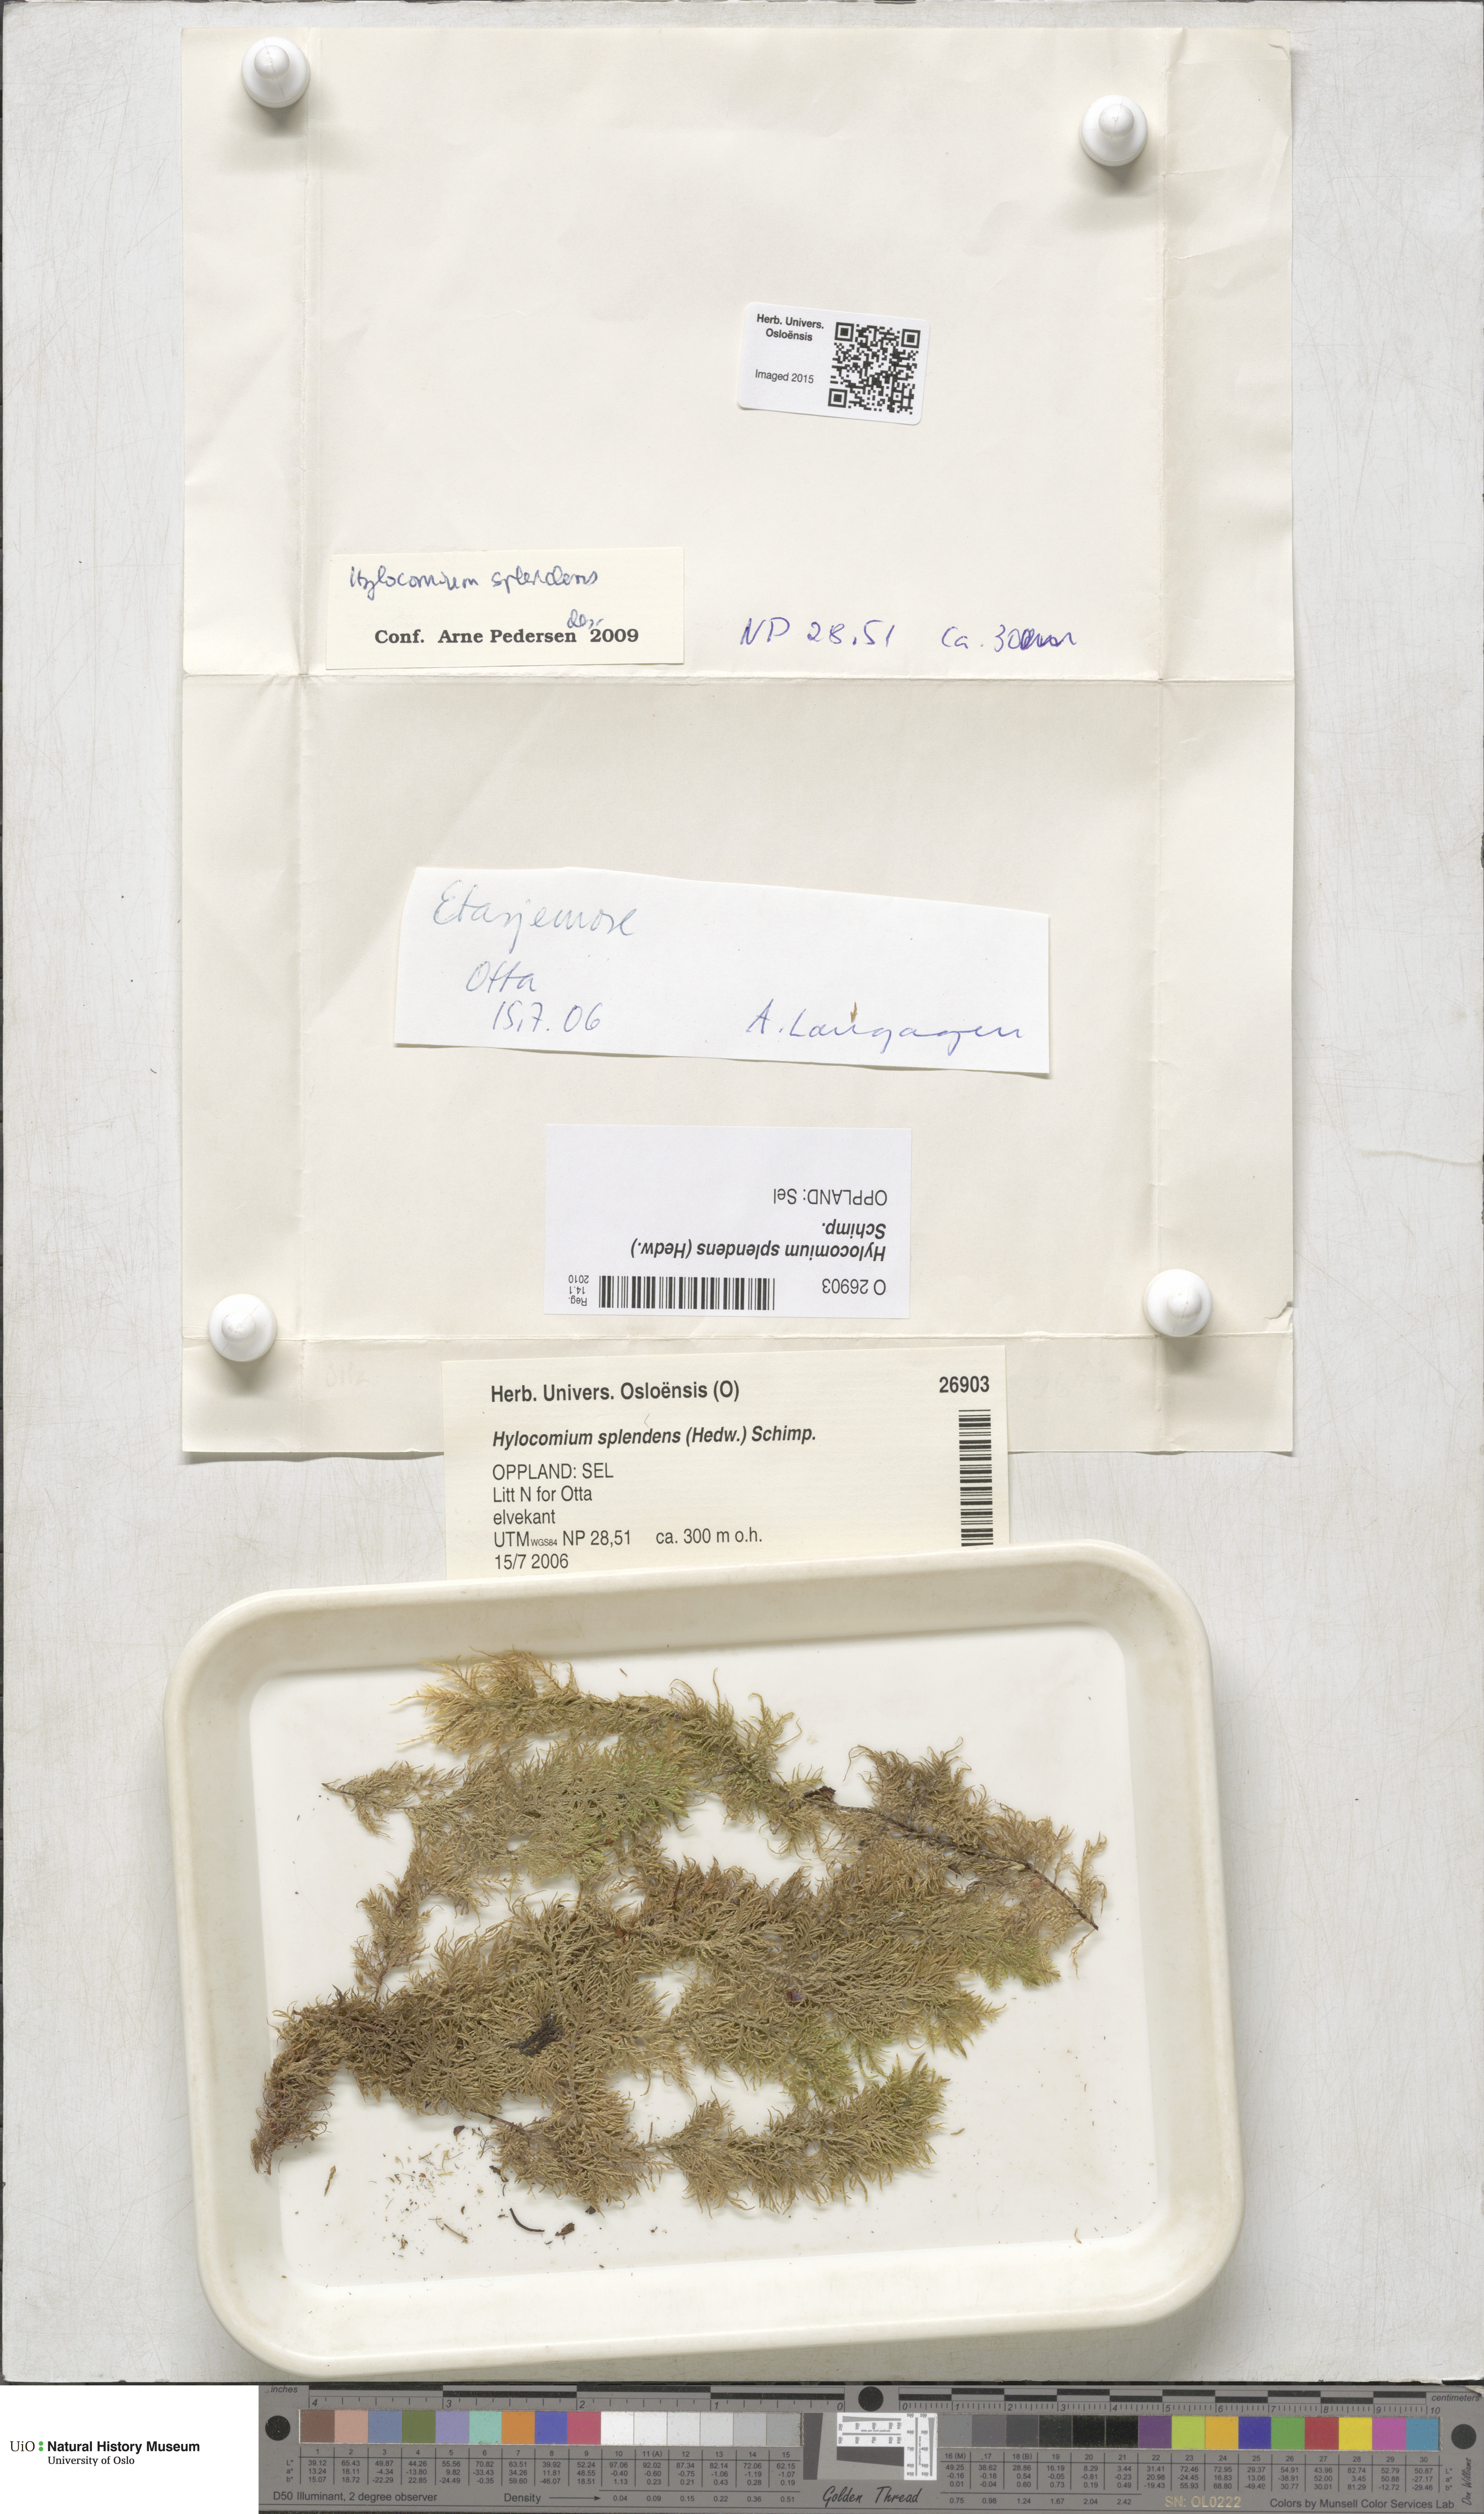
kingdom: Plantae
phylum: Bryophyta
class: Bryopsida
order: Hypnales
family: Hylocomiaceae
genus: Hylocomium
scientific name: Hylocomium splendens
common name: Stairstep moss
